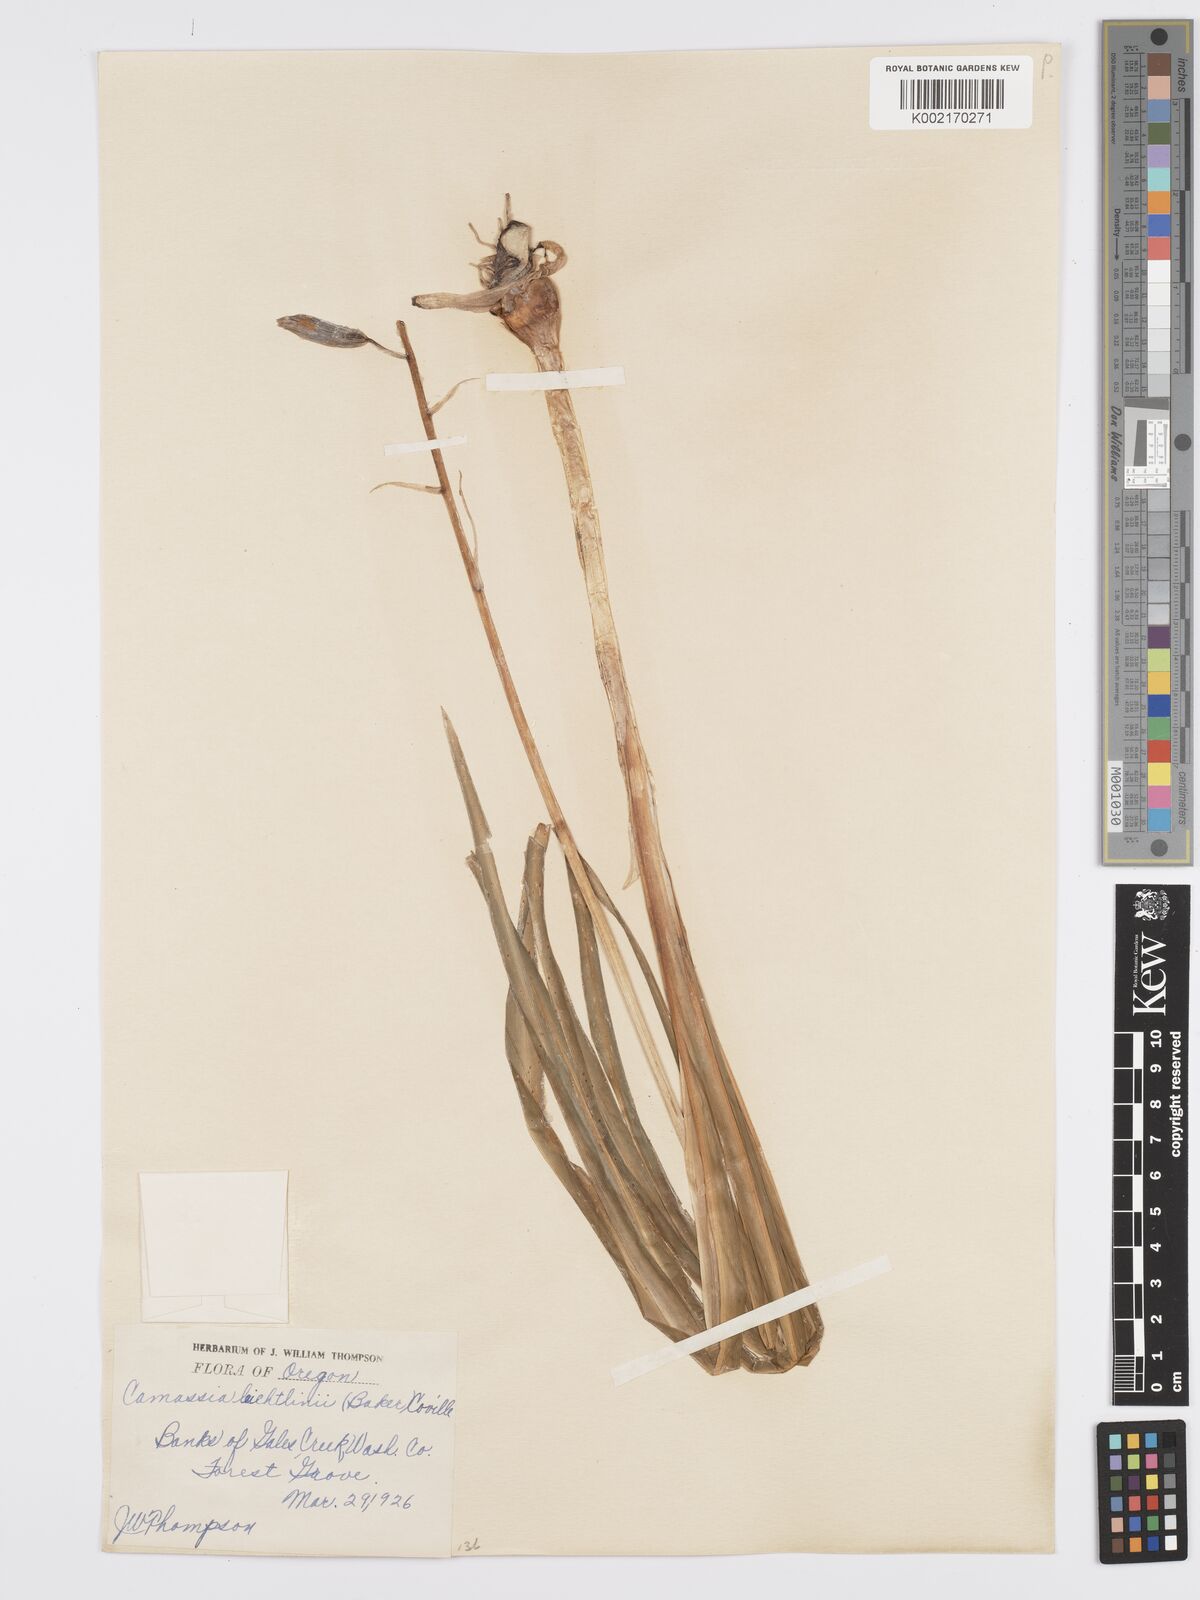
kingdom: Plantae
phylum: Tracheophyta
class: Liliopsida
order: Asparagales
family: Asparagaceae
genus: Camassia
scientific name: Camassia leichtlinii
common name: Leichtlin's camas
